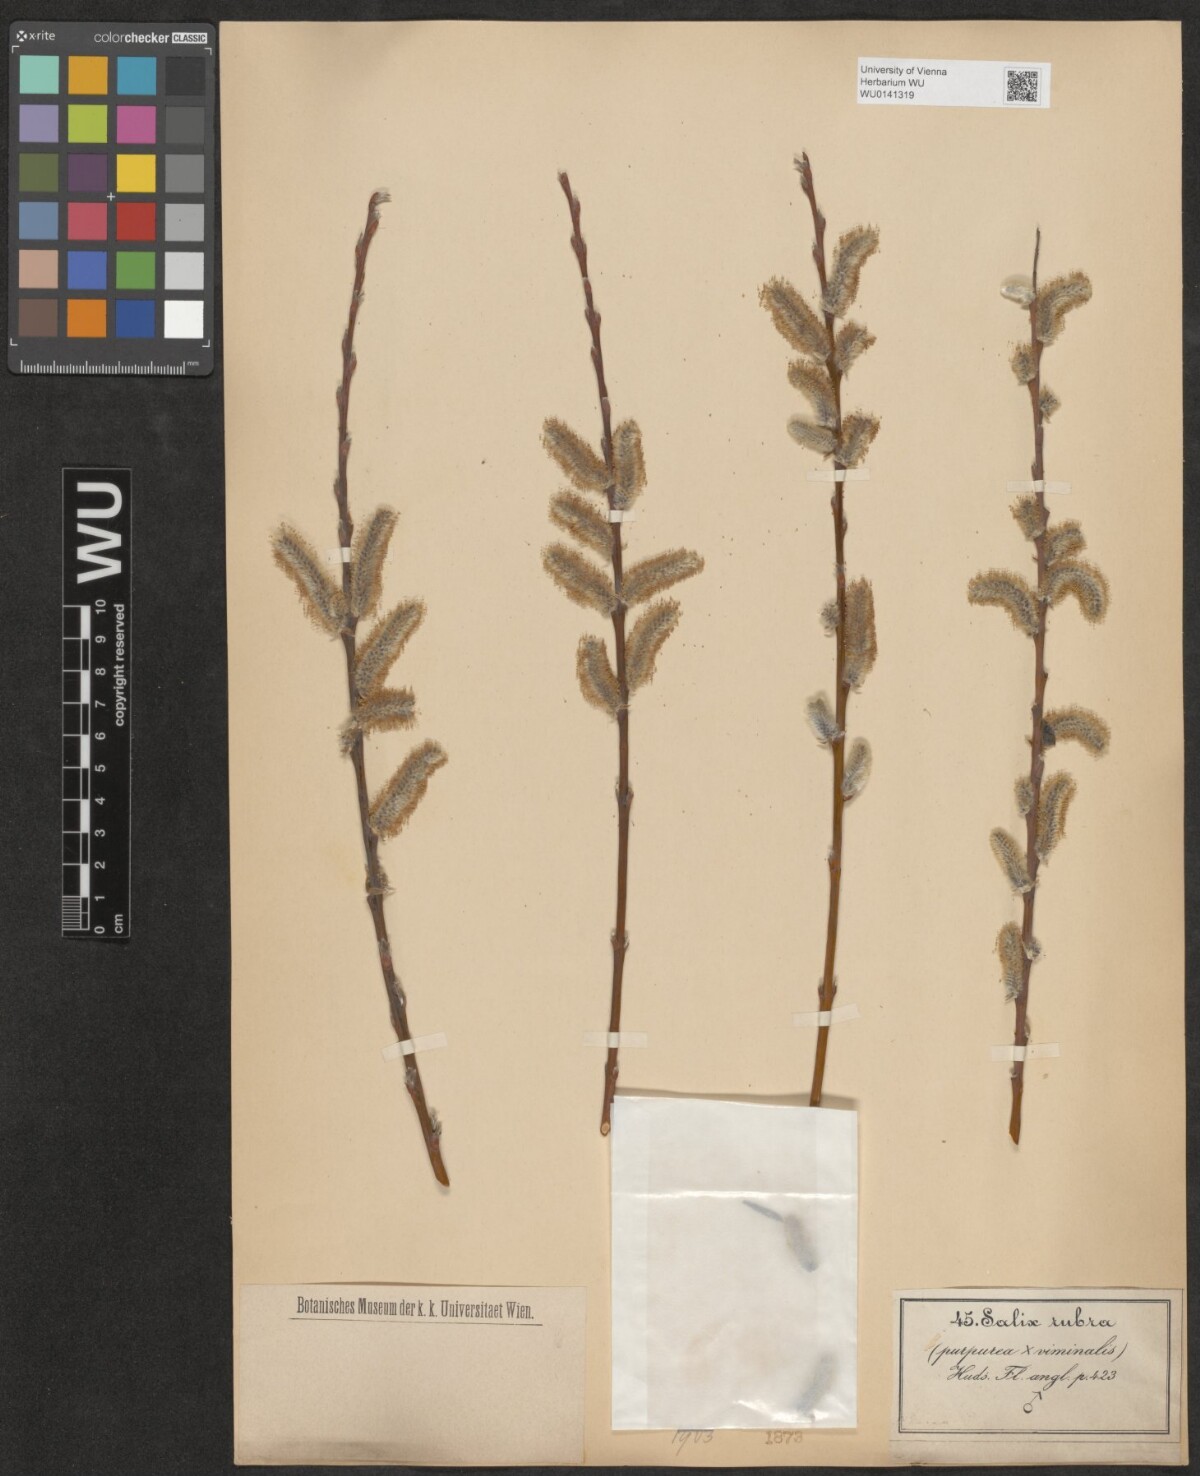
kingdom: Plantae
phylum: Tracheophyta
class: Magnoliopsida
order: Malpighiales
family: Salicaceae
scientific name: Salicaceae
